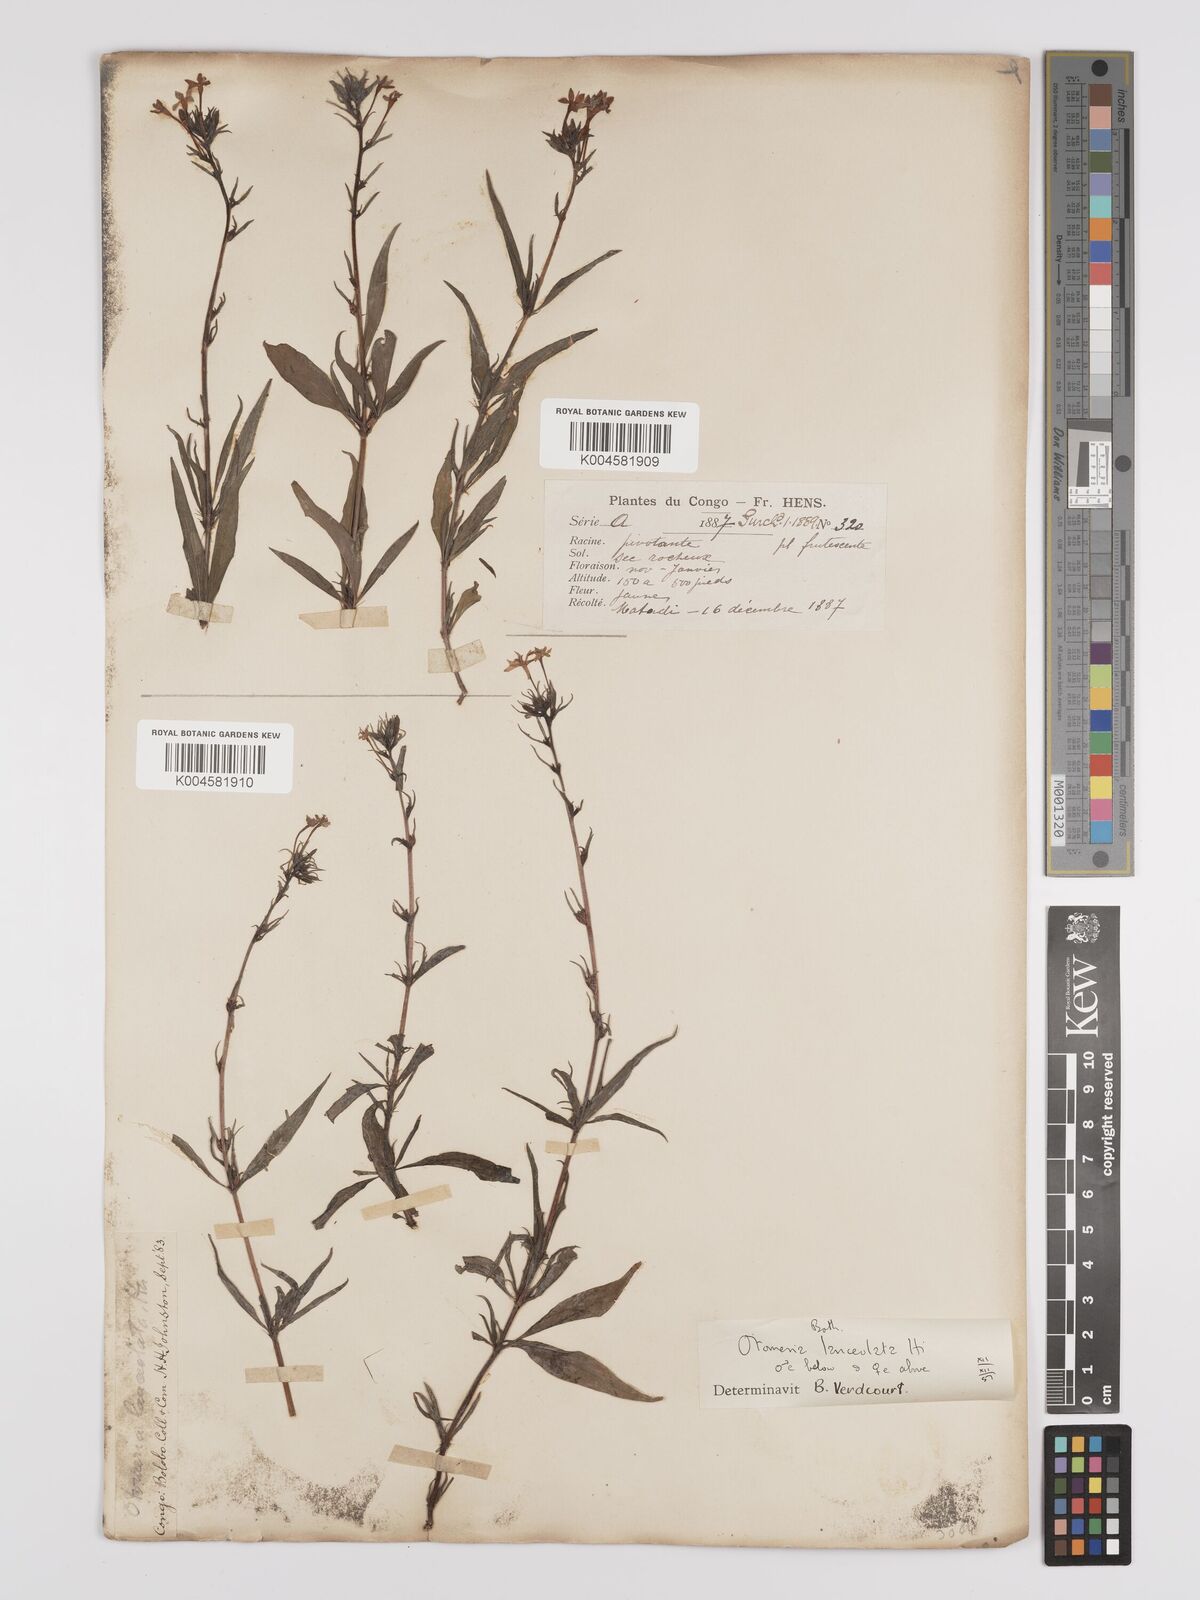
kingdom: Plantae
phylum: Tracheophyta
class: Magnoliopsida
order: Gentianales
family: Rubiaceae
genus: Otomeria
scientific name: Otomeria lanceolata
